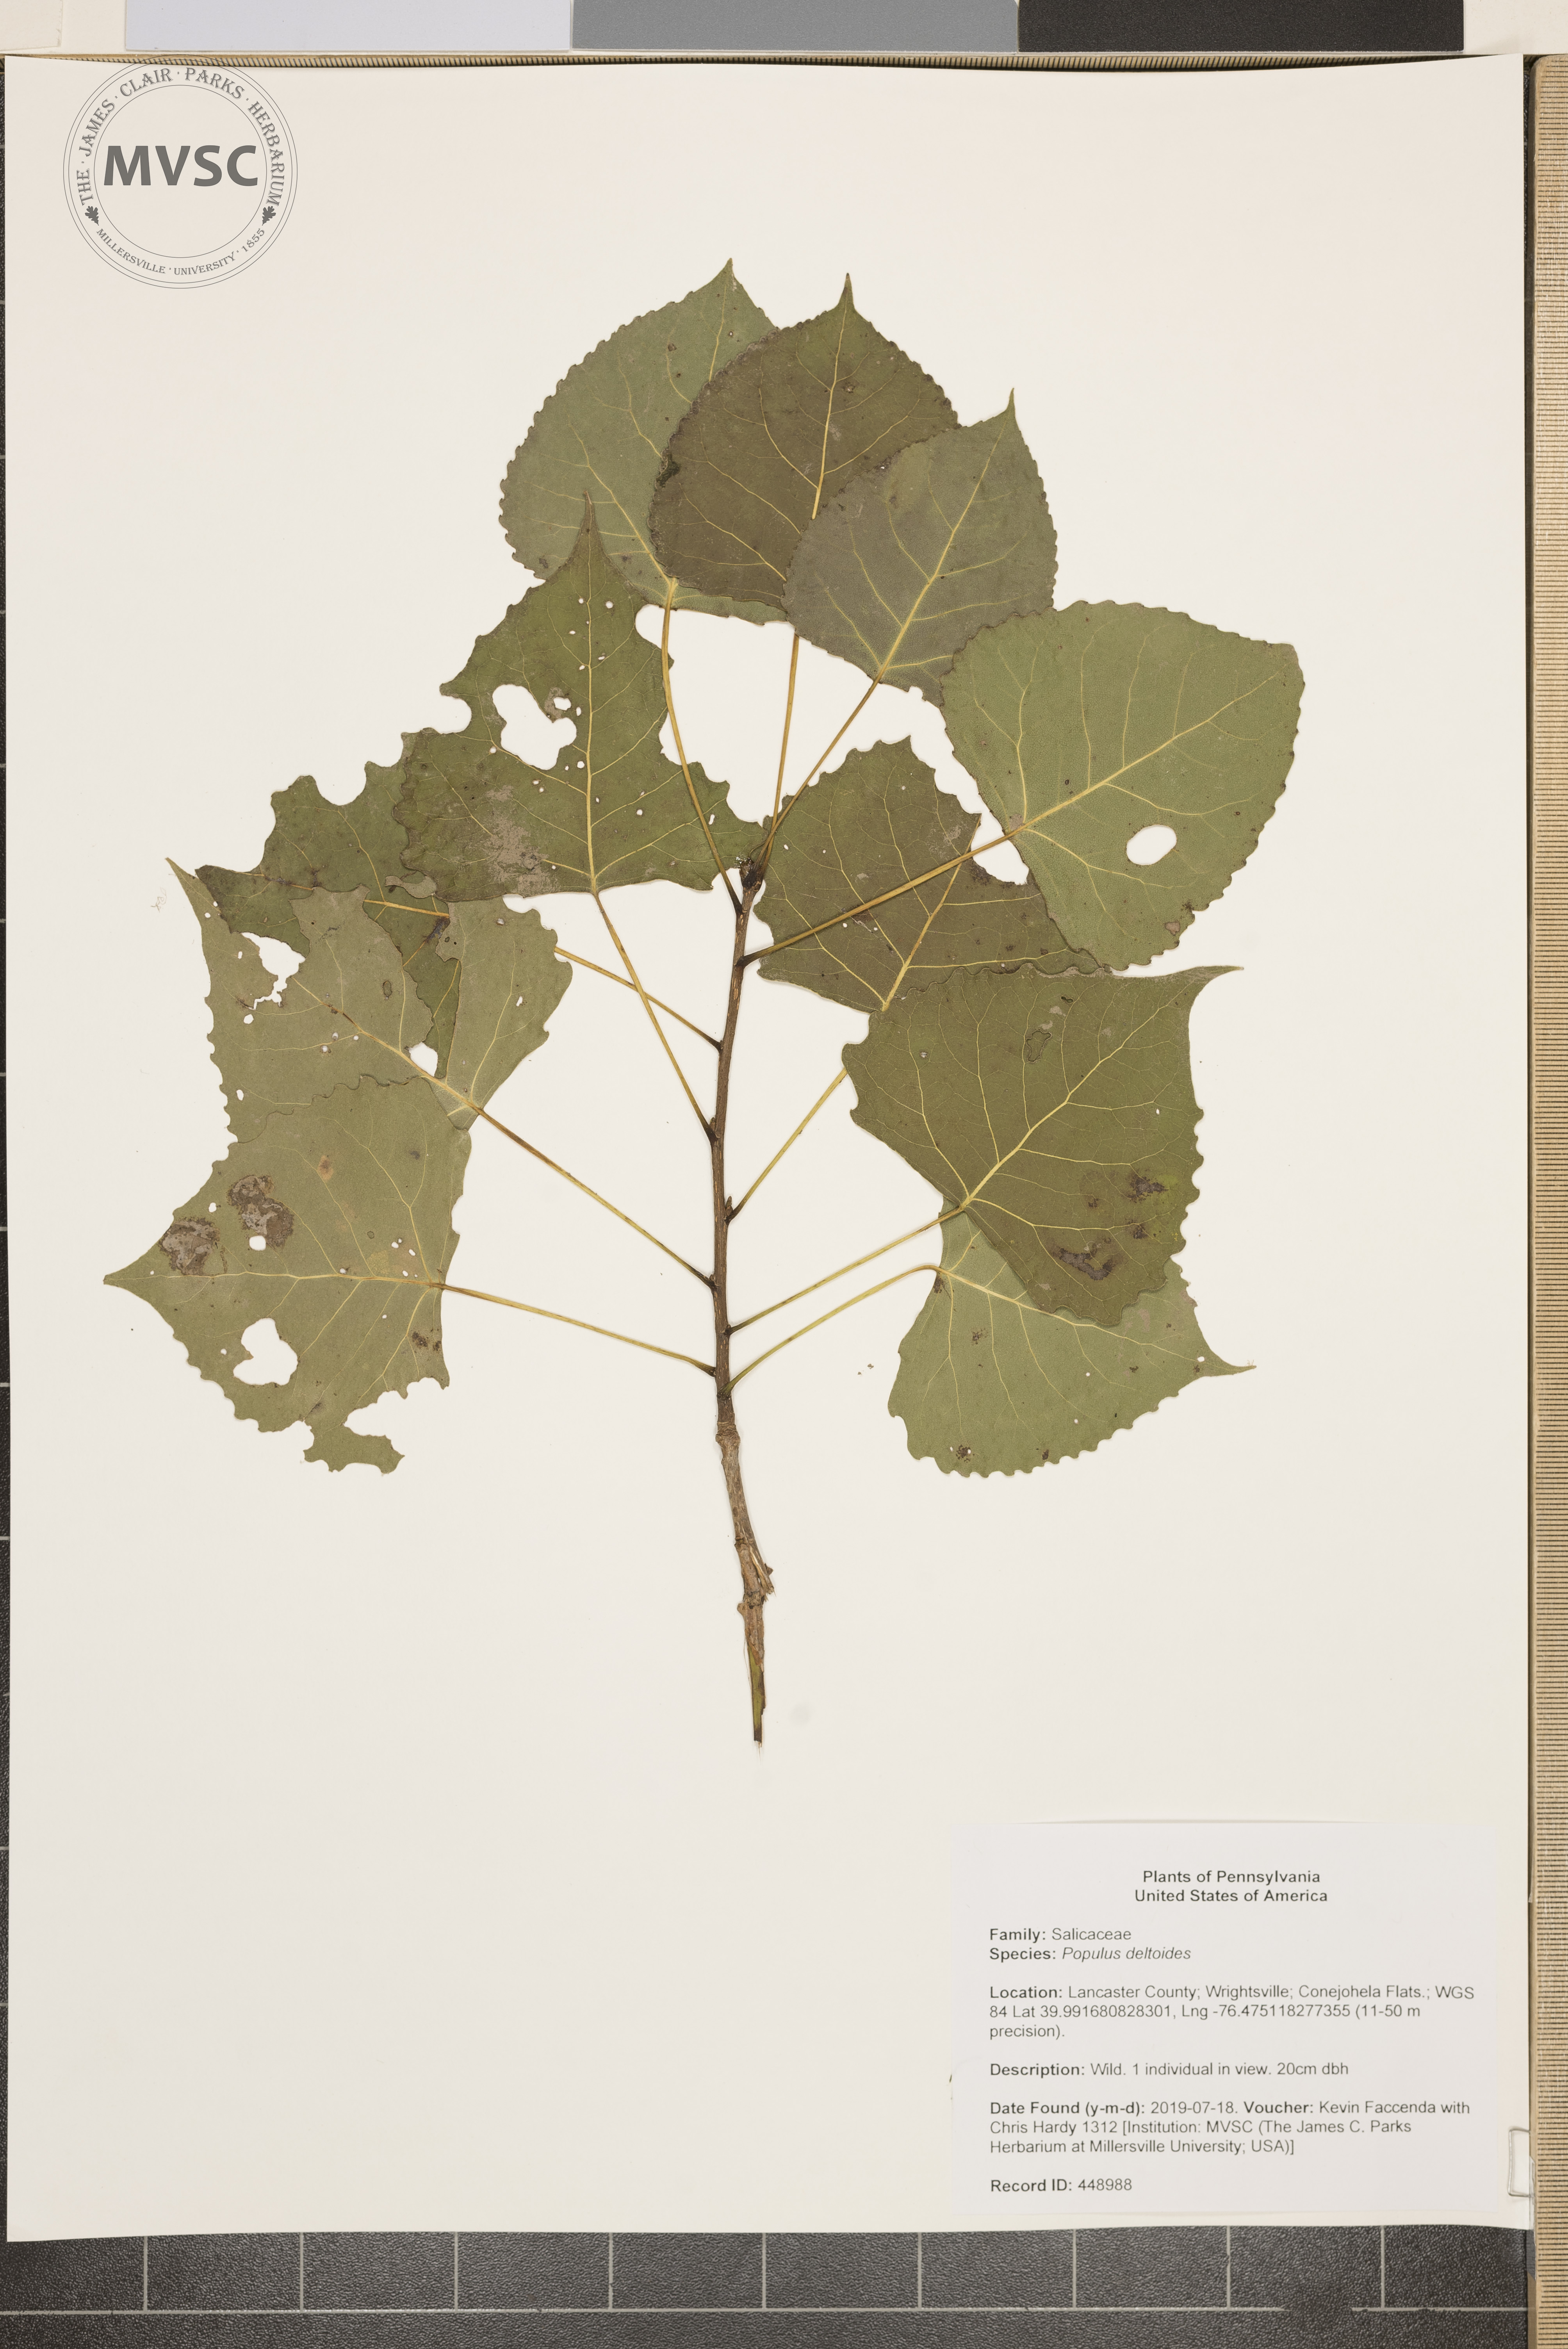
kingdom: Plantae
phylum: Tracheophyta
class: Magnoliopsida
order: Malpighiales
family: Salicaceae
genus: Populus
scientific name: Populus deltoides
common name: Eastern cottonwood
